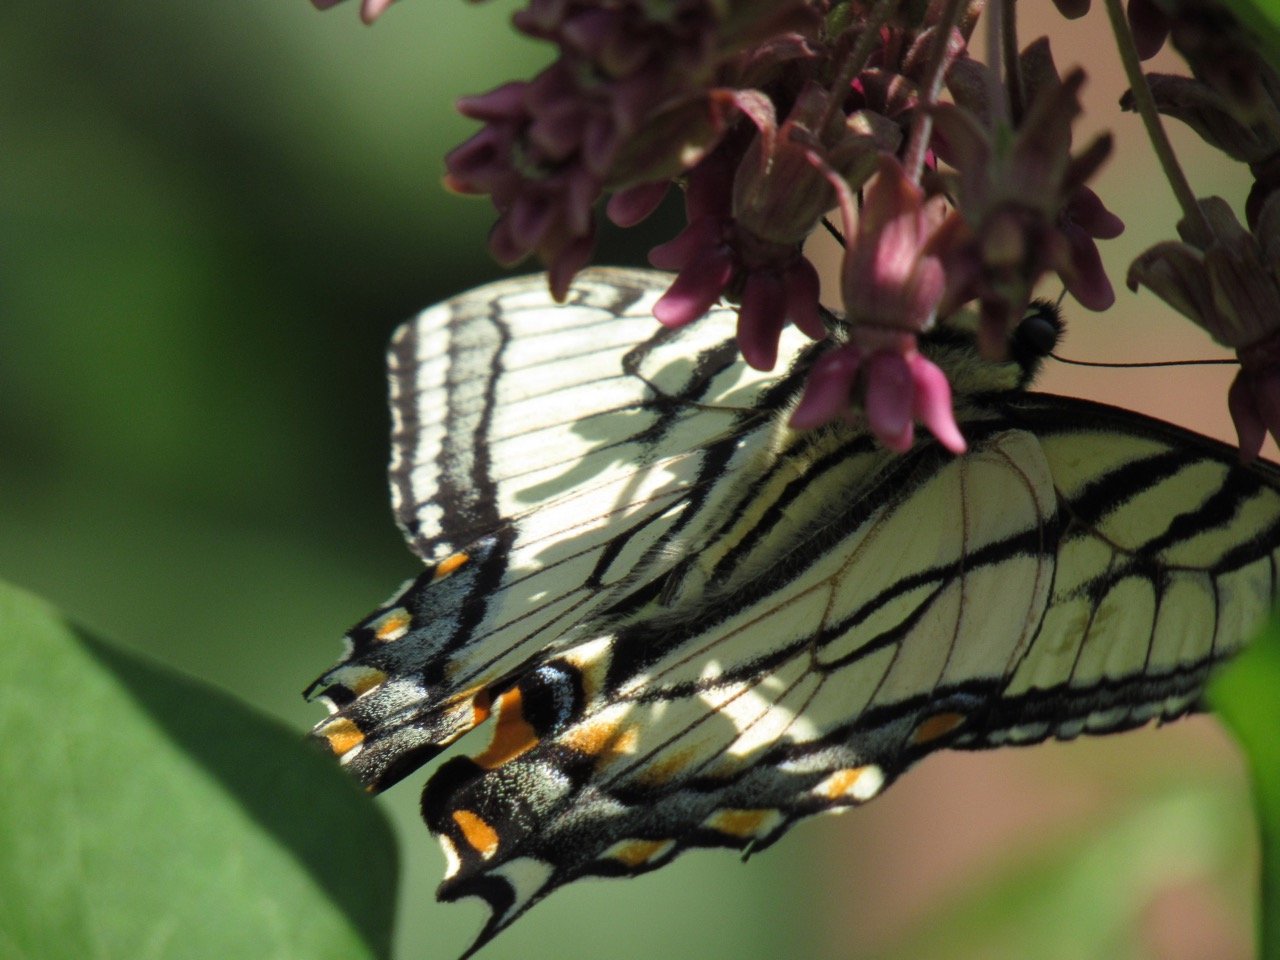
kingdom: Animalia
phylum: Arthropoda
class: Insecta
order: Lepidoptera
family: Papilionidae
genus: Pterourus
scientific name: Pterourus
